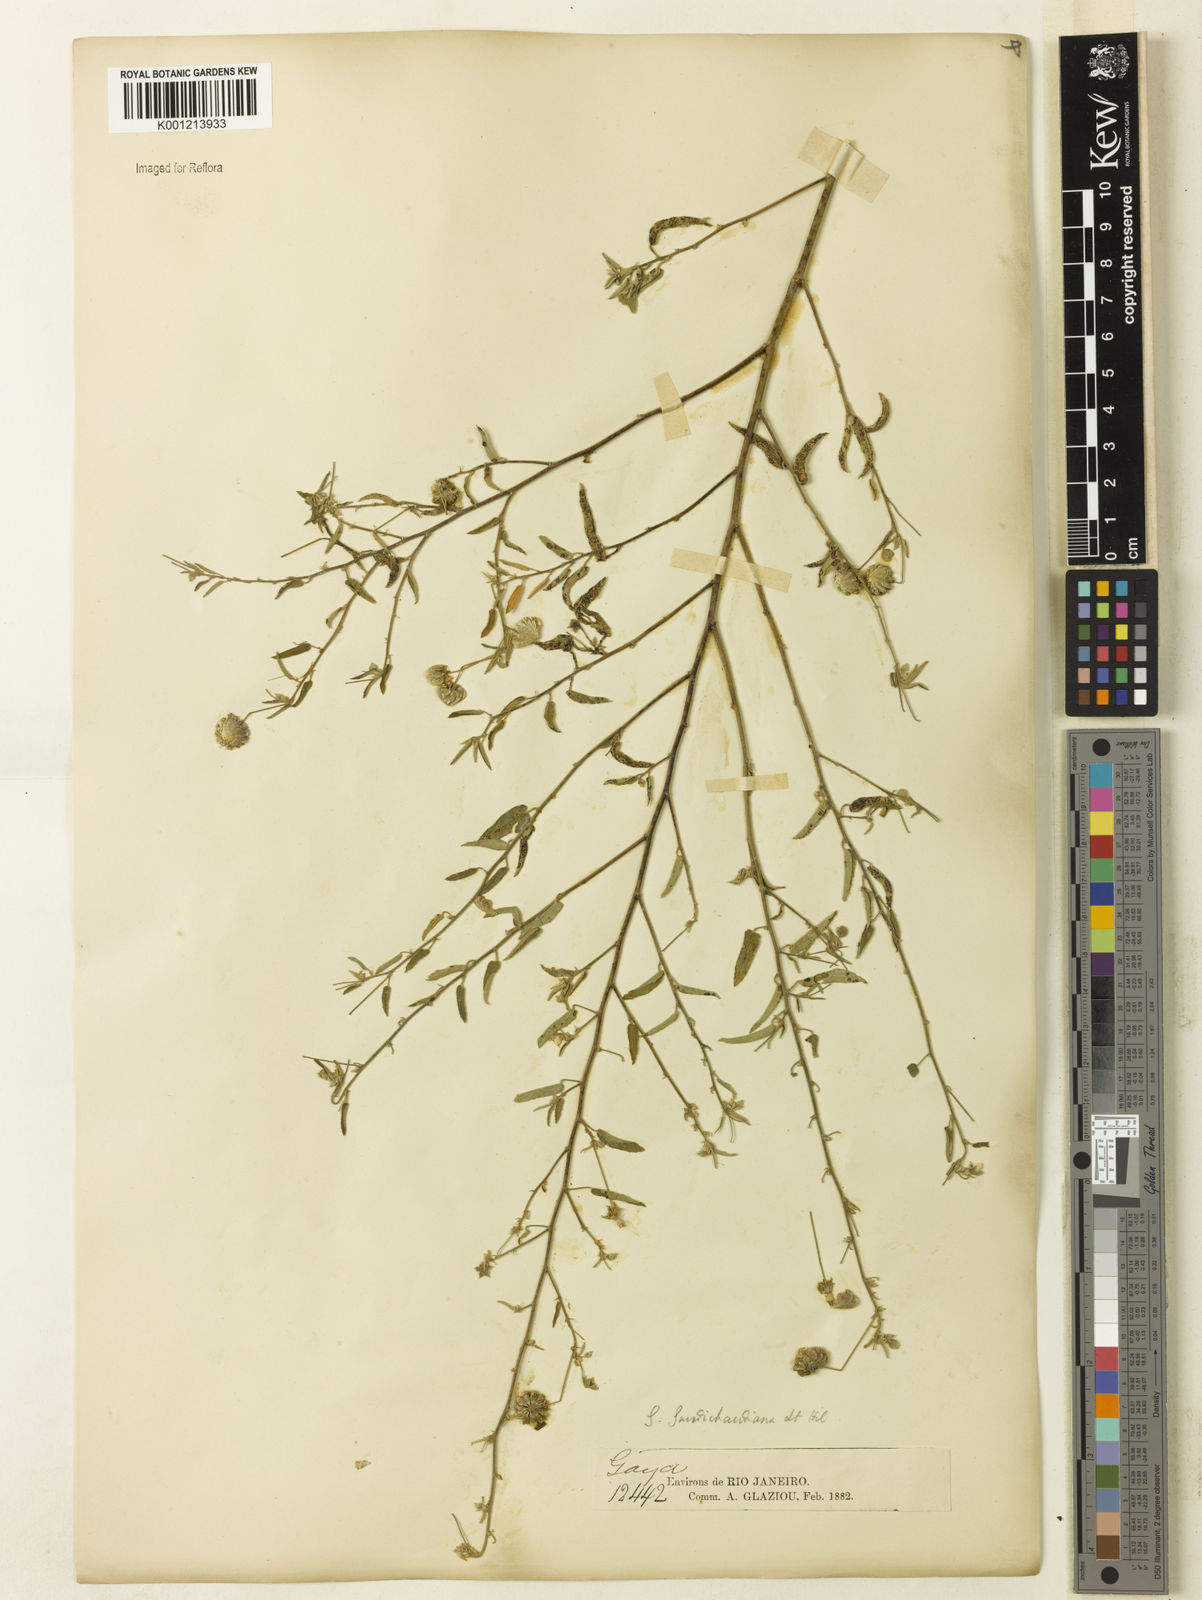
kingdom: Plantae
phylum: Tracheophyta
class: Magnoliopsida
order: Malvales
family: Malvaceae
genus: Gaya
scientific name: Gaya gaudichaudiana
